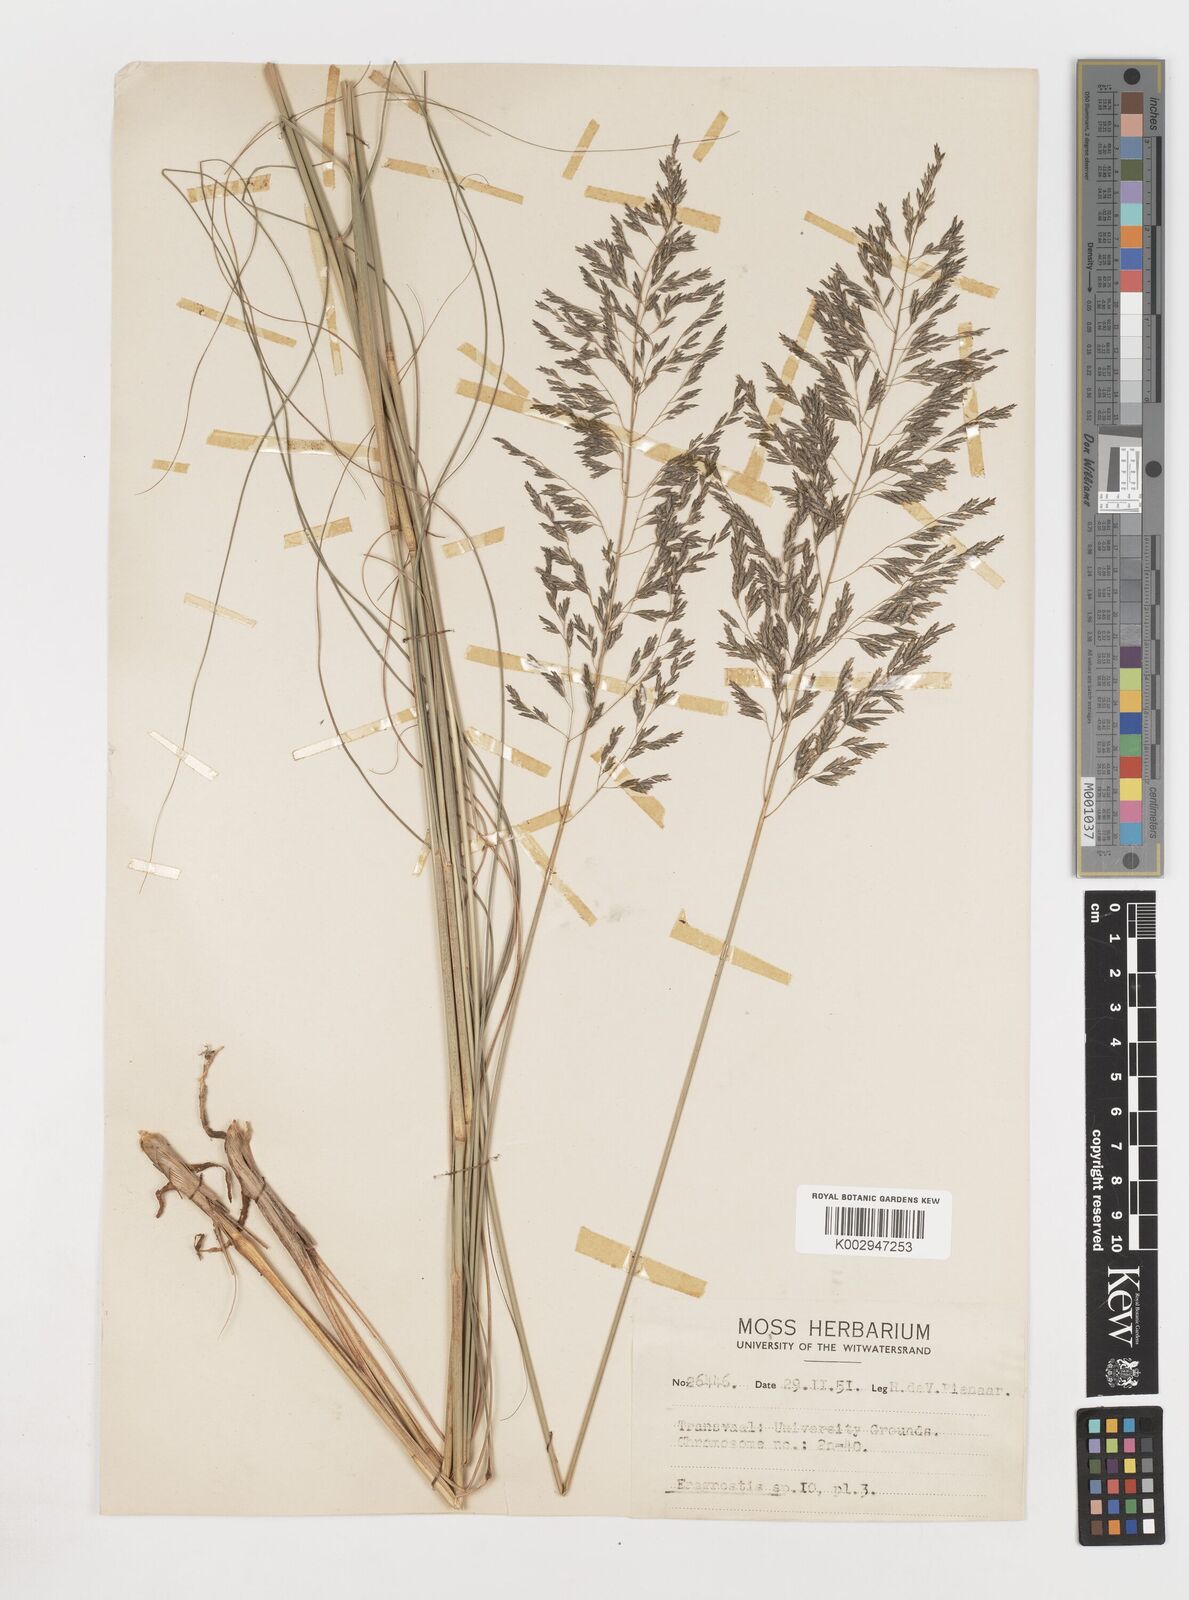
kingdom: Plantae
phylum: Tracheophyta
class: Liliopsida
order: Poales
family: Poaceae
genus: Eragrostis
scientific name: Eragrostis
